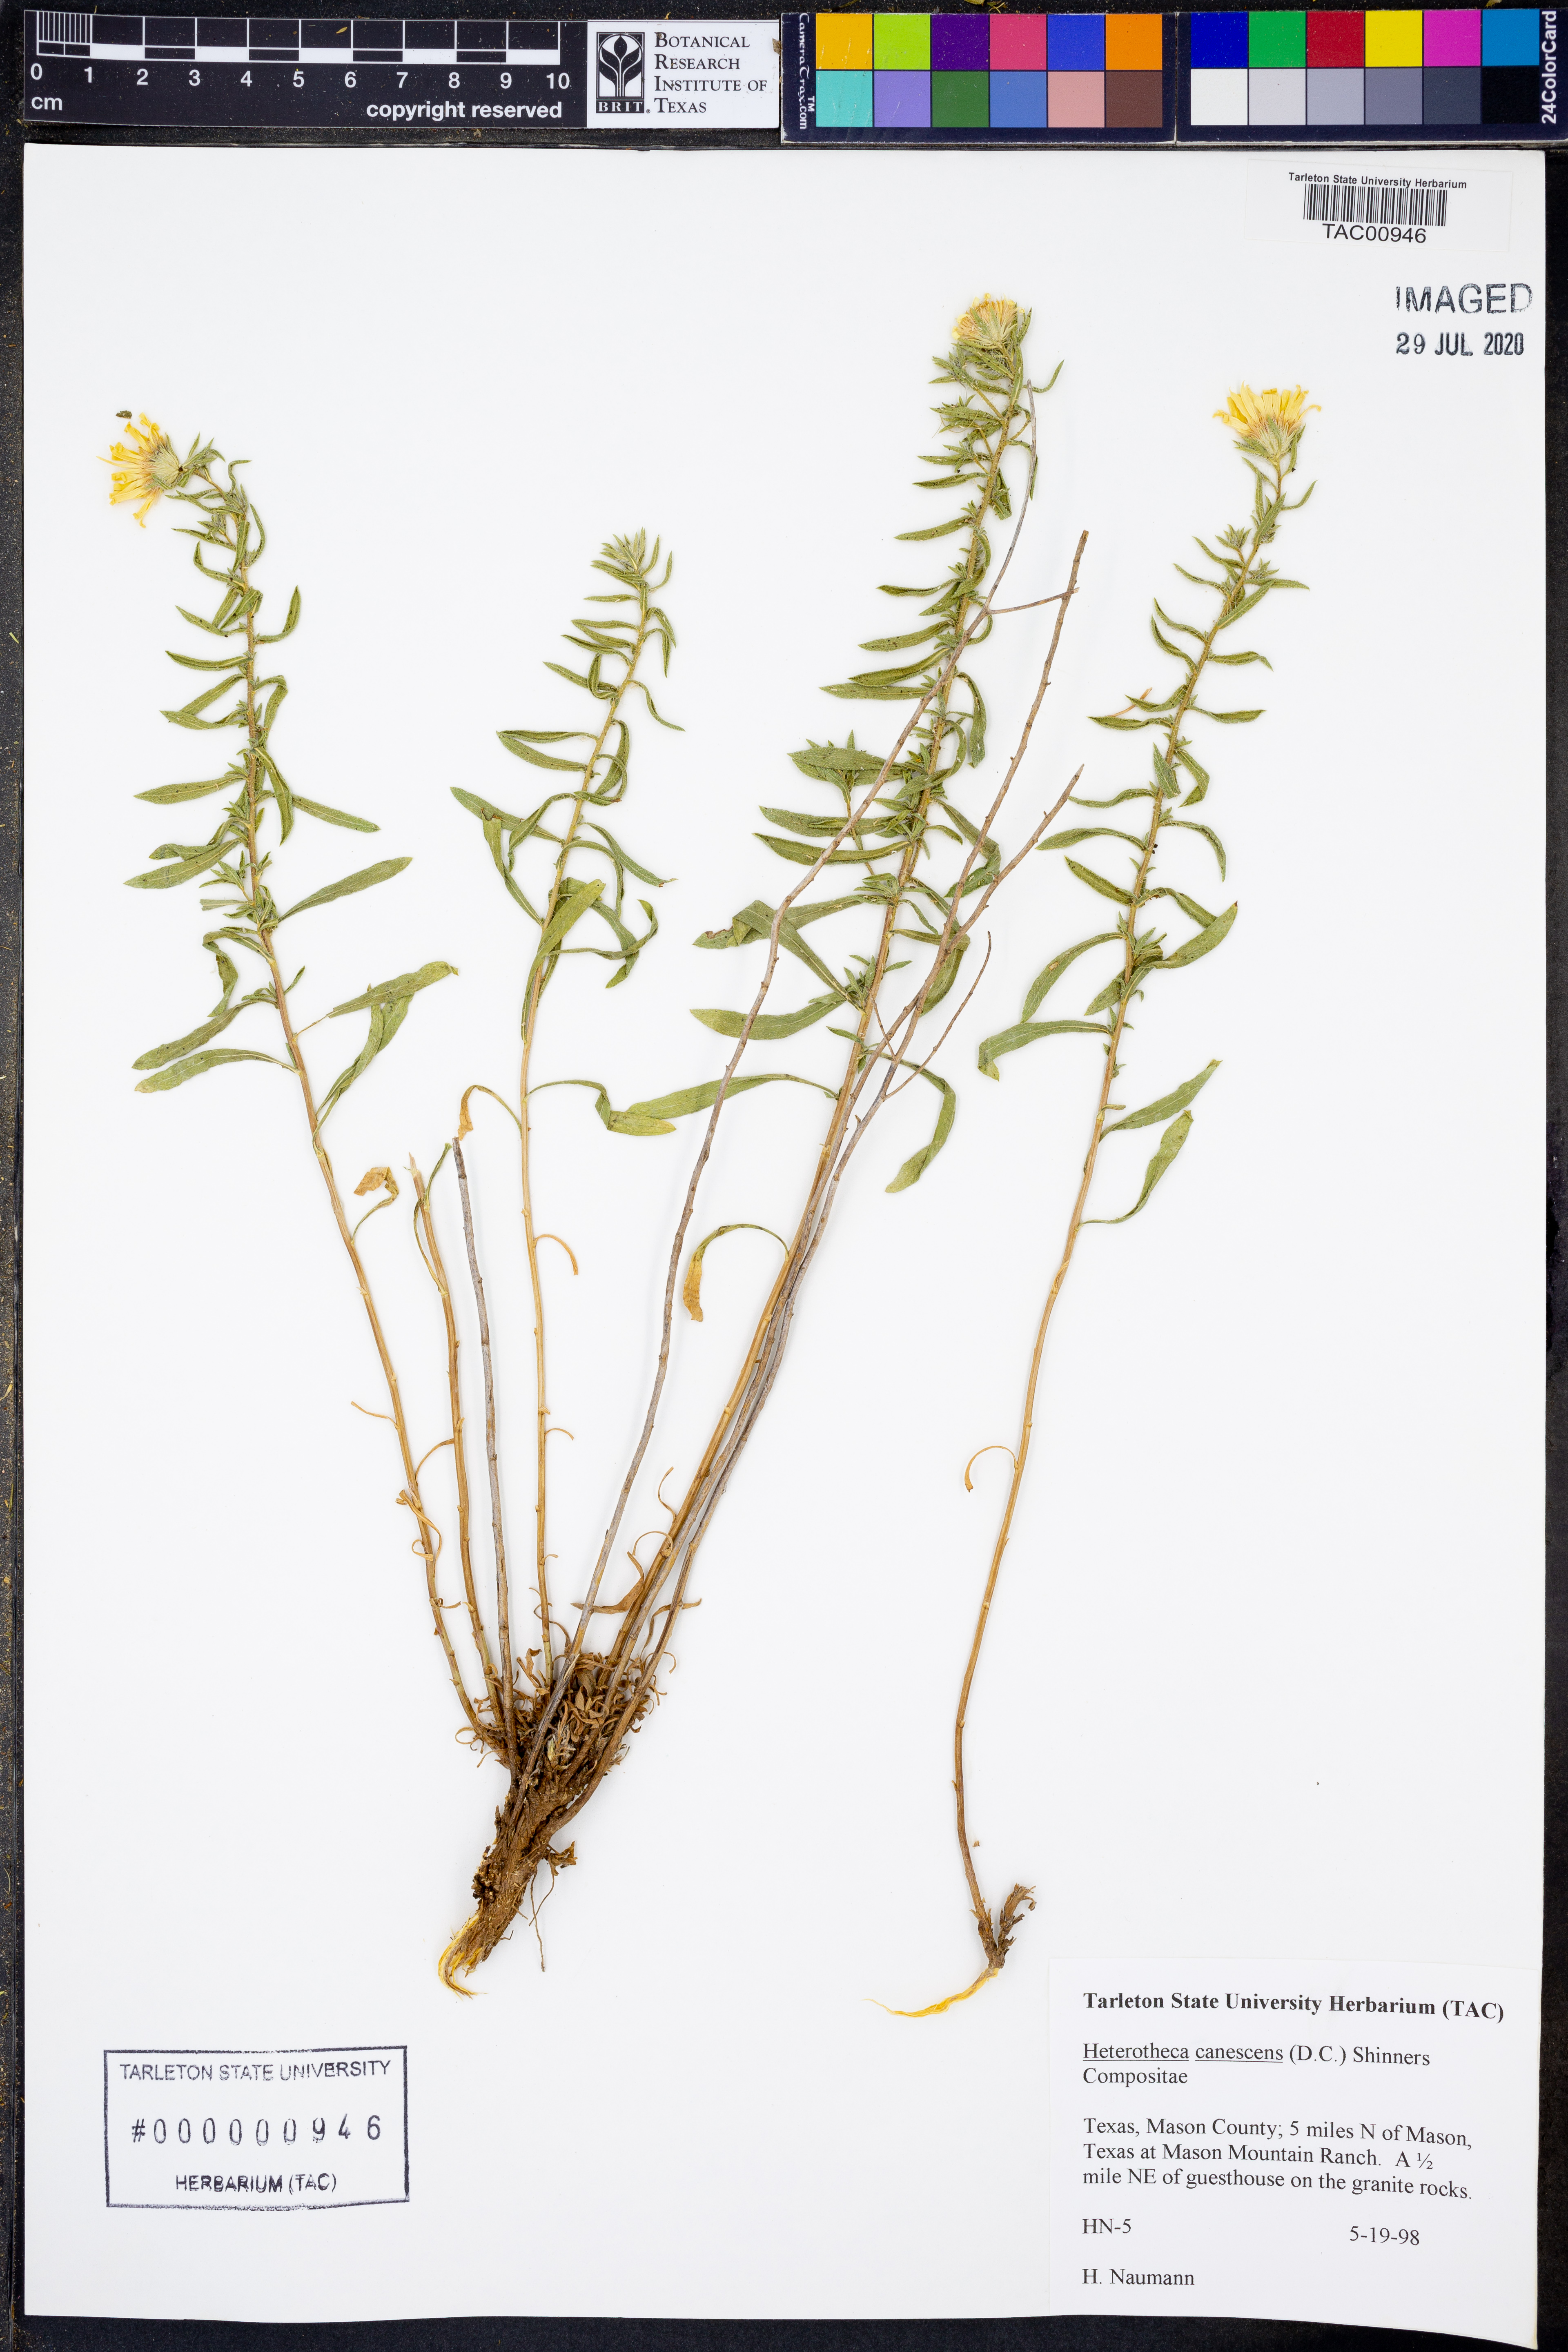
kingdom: Plantae
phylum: Tracheophyta
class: Magnoliopsida
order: Asterales
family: Asteraceae
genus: Heterotheca
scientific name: Heterotheca canescens
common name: Hoary golden-aster
